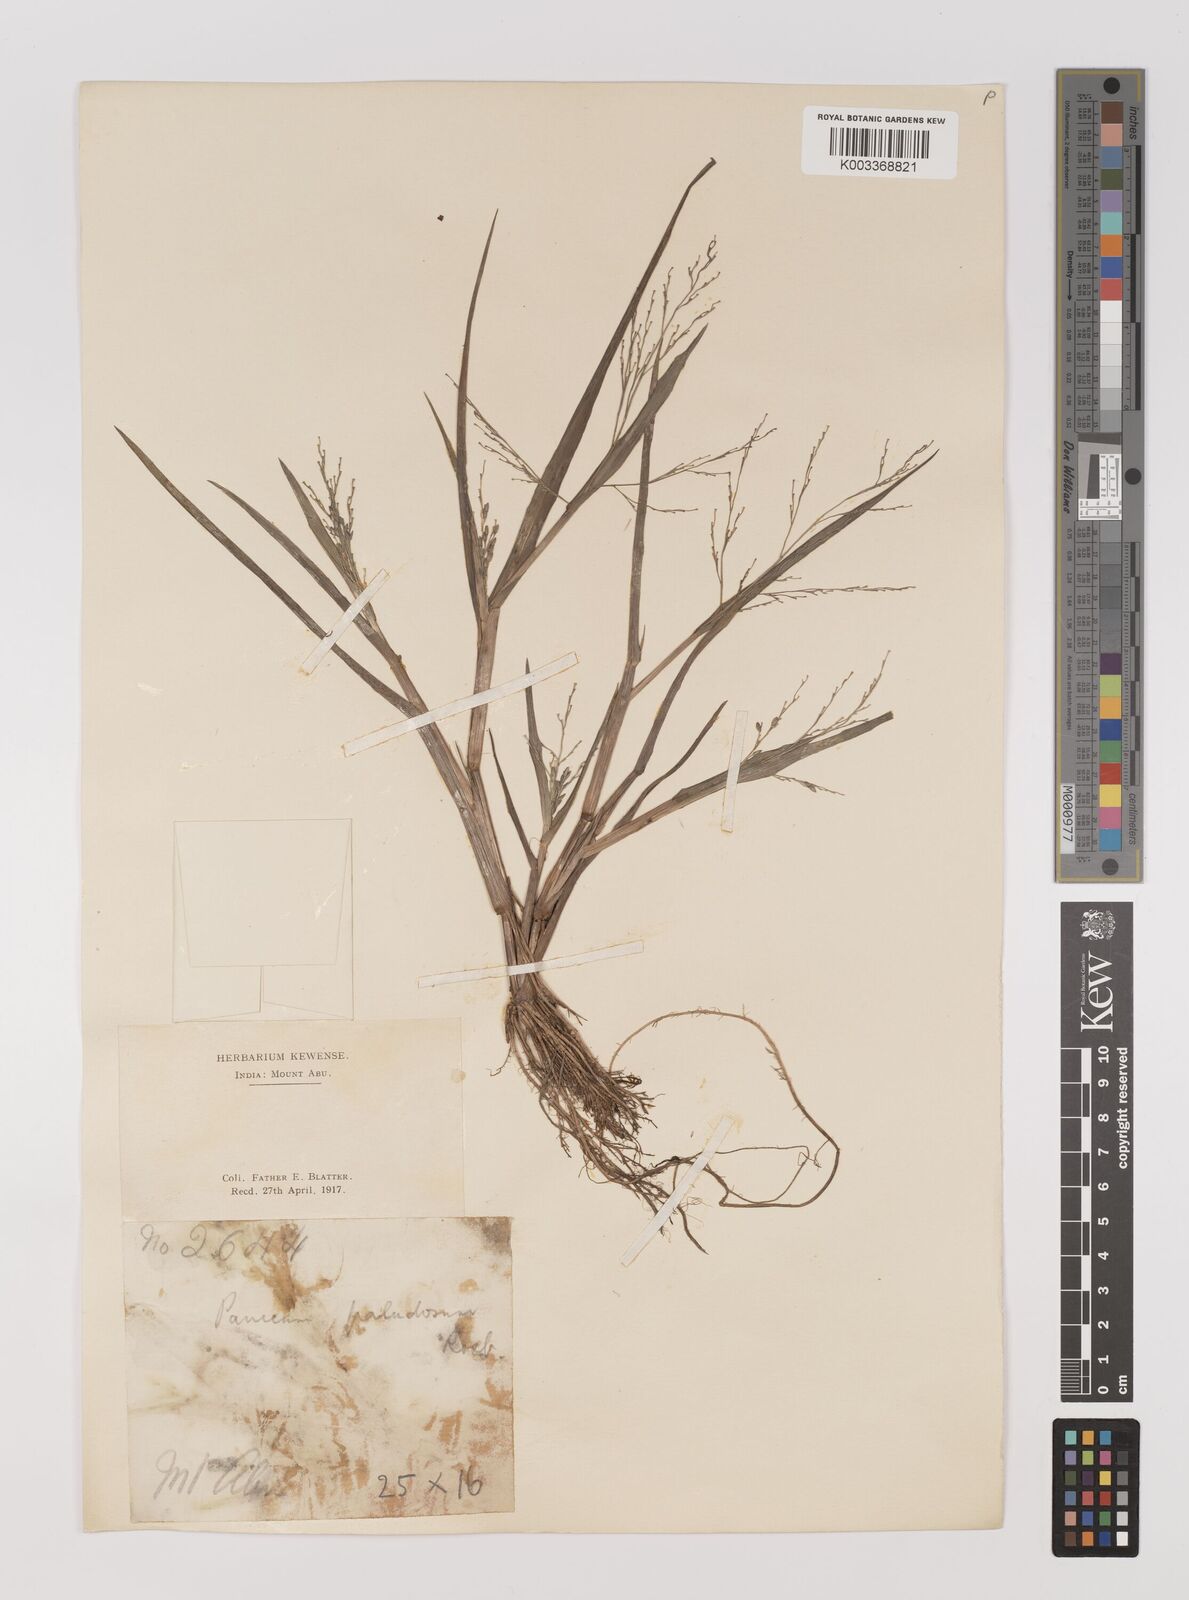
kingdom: Plantae
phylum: Tracheophyta
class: Liliopsida
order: Poales
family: Poaceae
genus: Louisiella
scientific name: Louisiella paludosa
